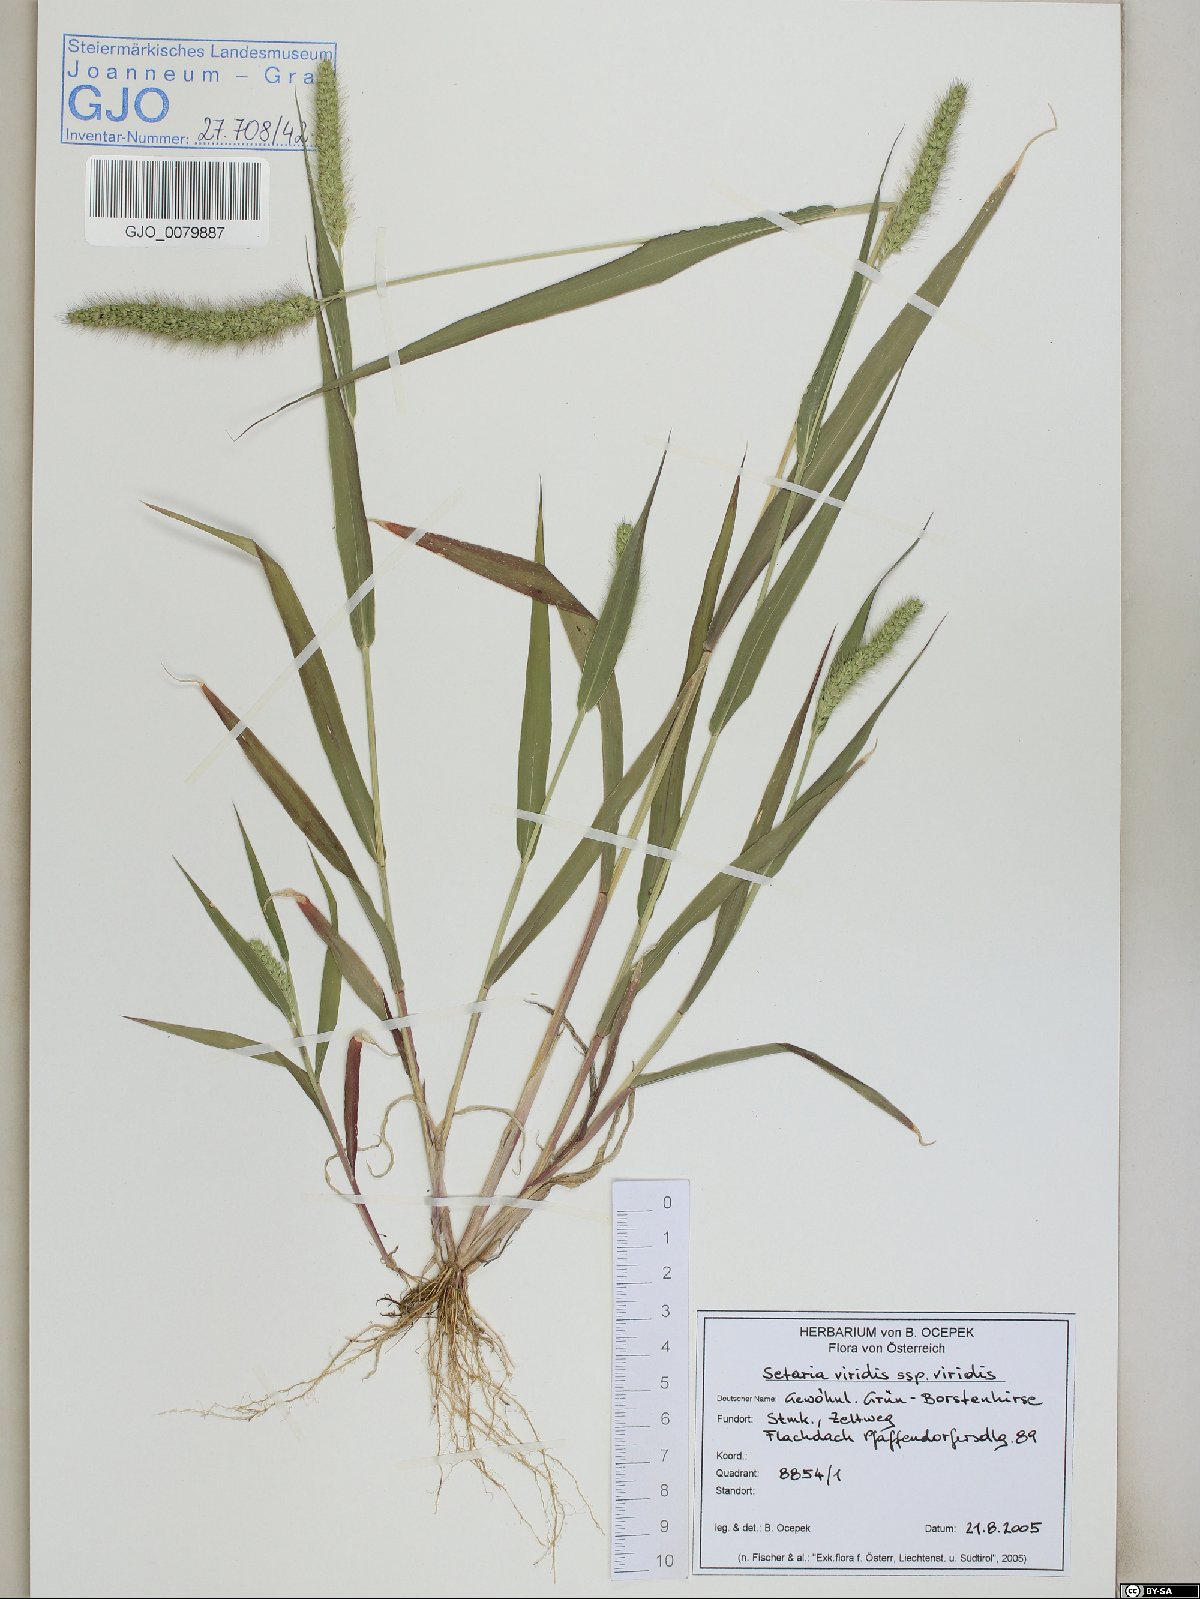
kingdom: Plantae
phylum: Tracheophyta
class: Liliopsida
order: Poales
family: Poaceae
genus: Setaria
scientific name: Setaria viridis
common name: Green bristlegrass
